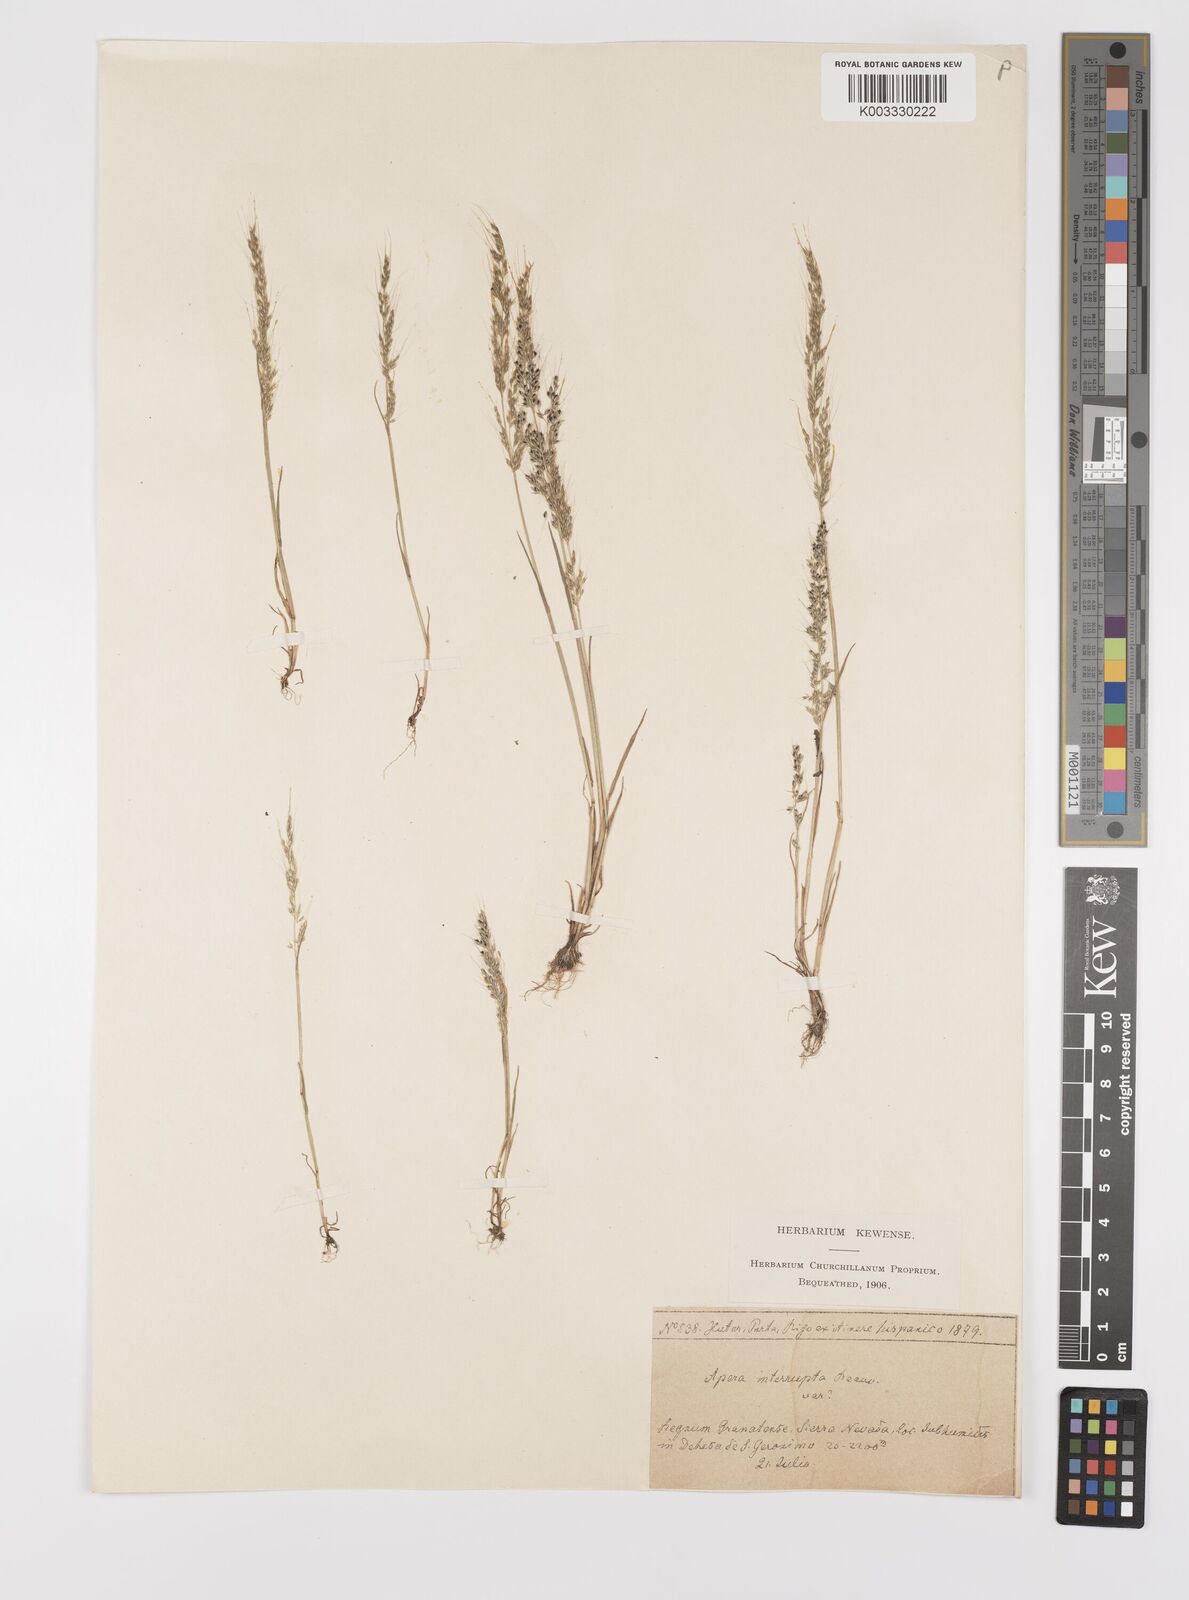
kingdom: Plantae
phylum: Tracheophyta
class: Liliopsida
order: Poales
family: Poaceae
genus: Apera
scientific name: Apera interrupta
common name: Dense silky-bent
